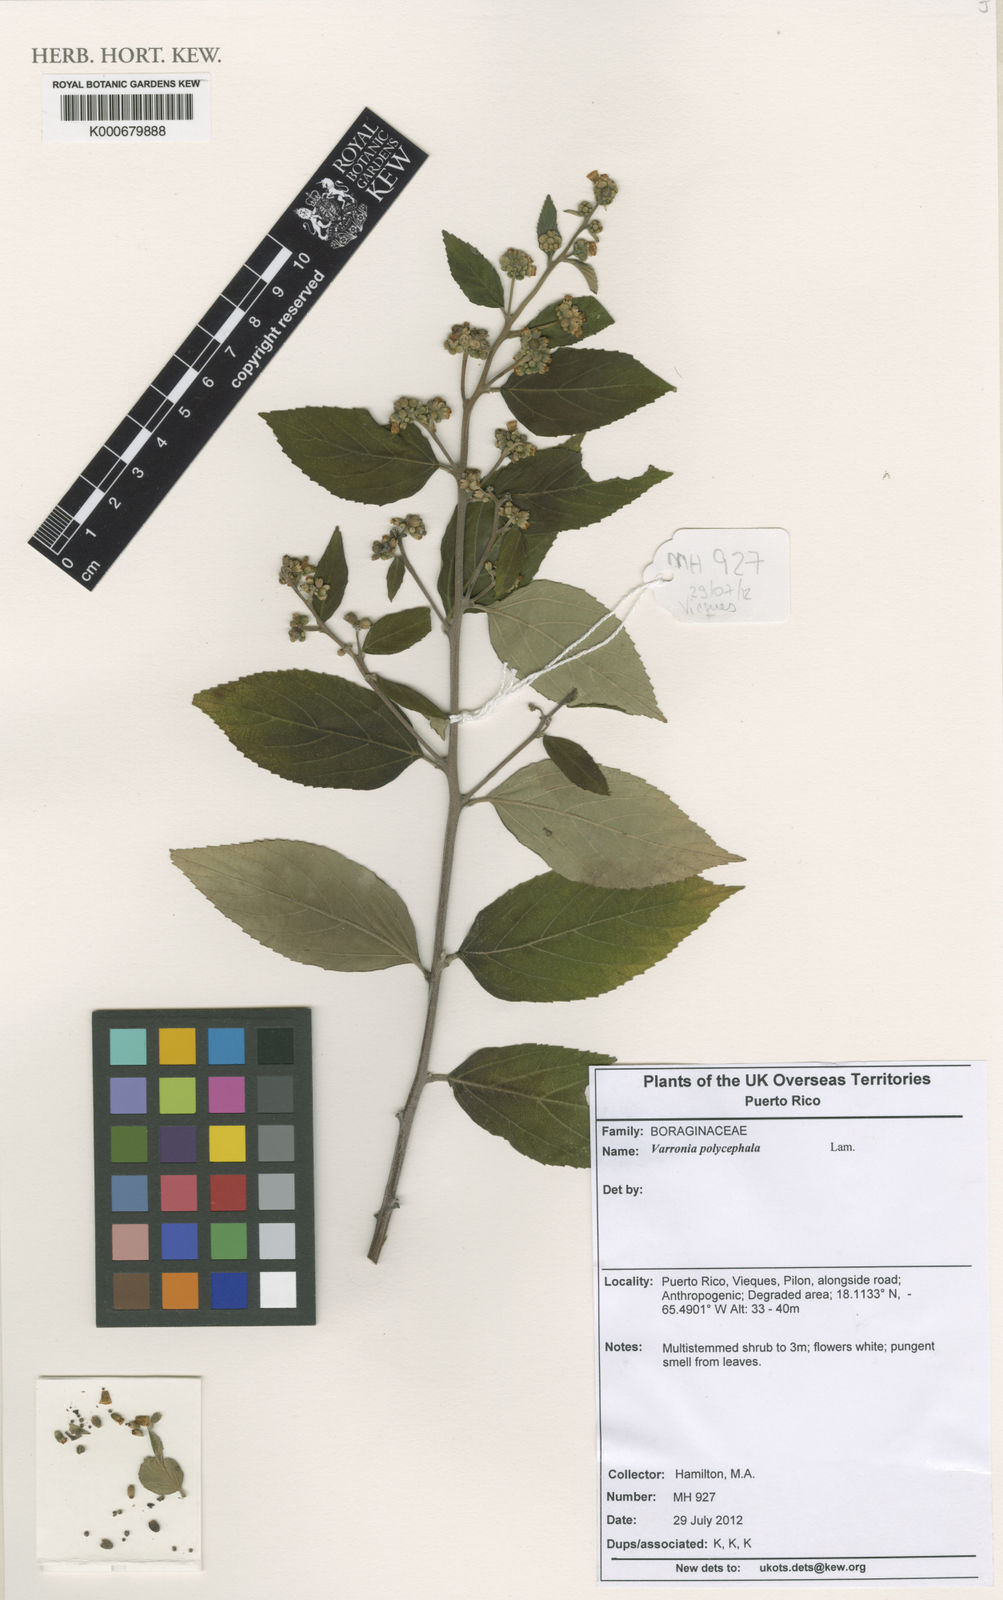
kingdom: Plantae
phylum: Tracheophyta
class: Magnoliopsida
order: Boraginales
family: Cordiaceae
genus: Varronia
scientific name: Varronia polycephala
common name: Black-sage
